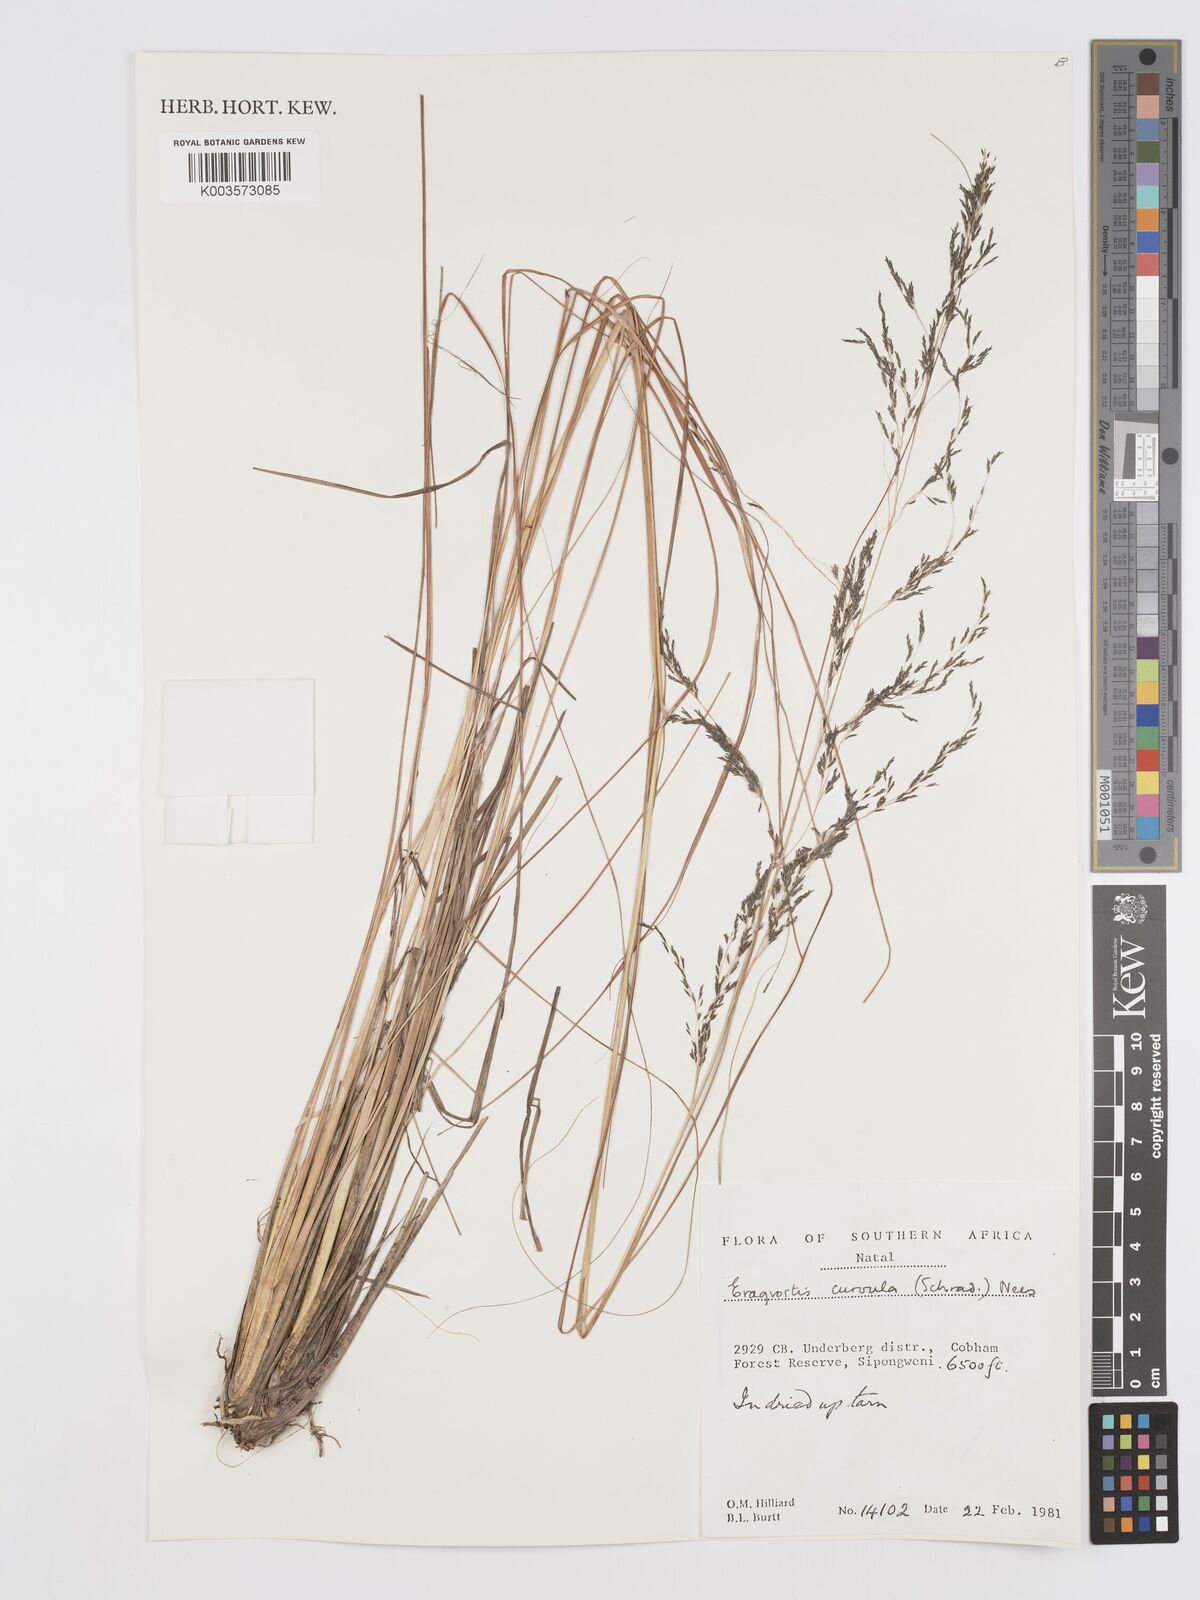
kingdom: Plantae
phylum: Tracheophyta
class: Liliopsida
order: Poales
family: Poaceae
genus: Eragrostis
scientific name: Eragrostis curvula
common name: African love-grass
